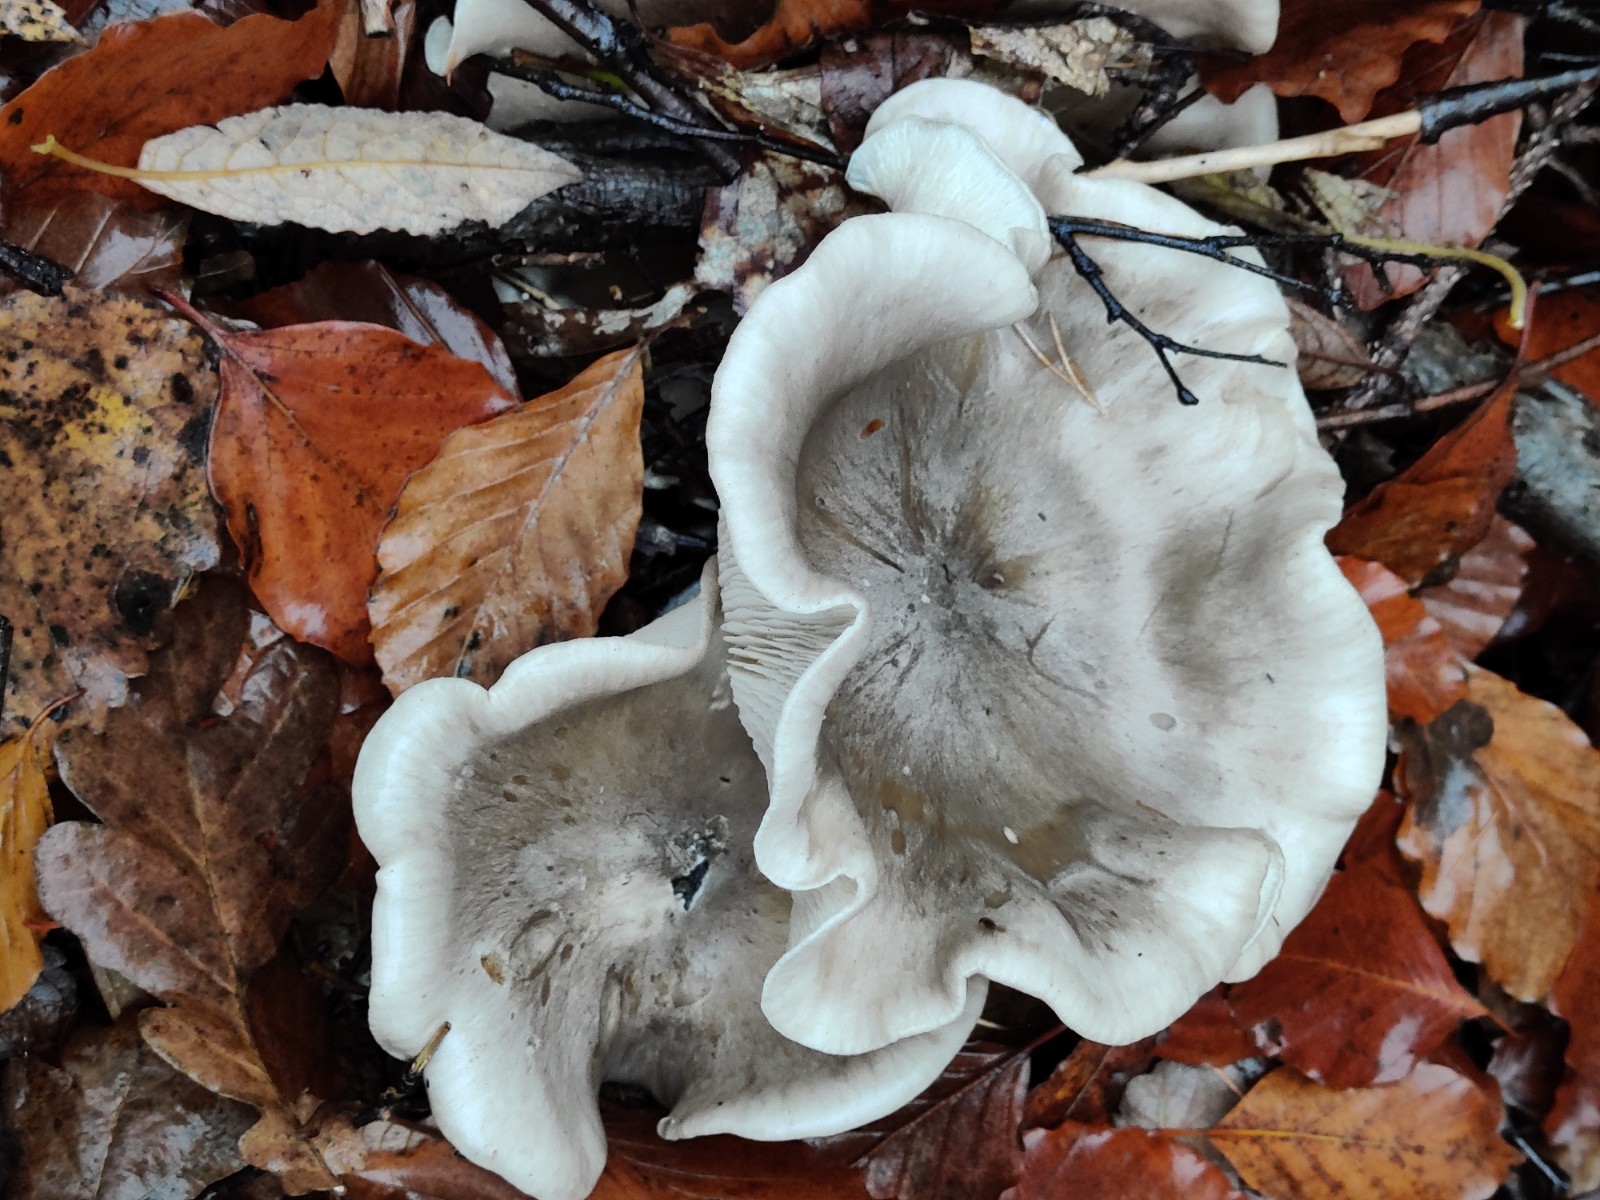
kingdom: Fungi
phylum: Basidiomycota
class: Agaricomycetes
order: Agaricales
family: Tricholomataceae
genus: Clitocybe
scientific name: Clitocybe nebularis
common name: tåge-tragthat
